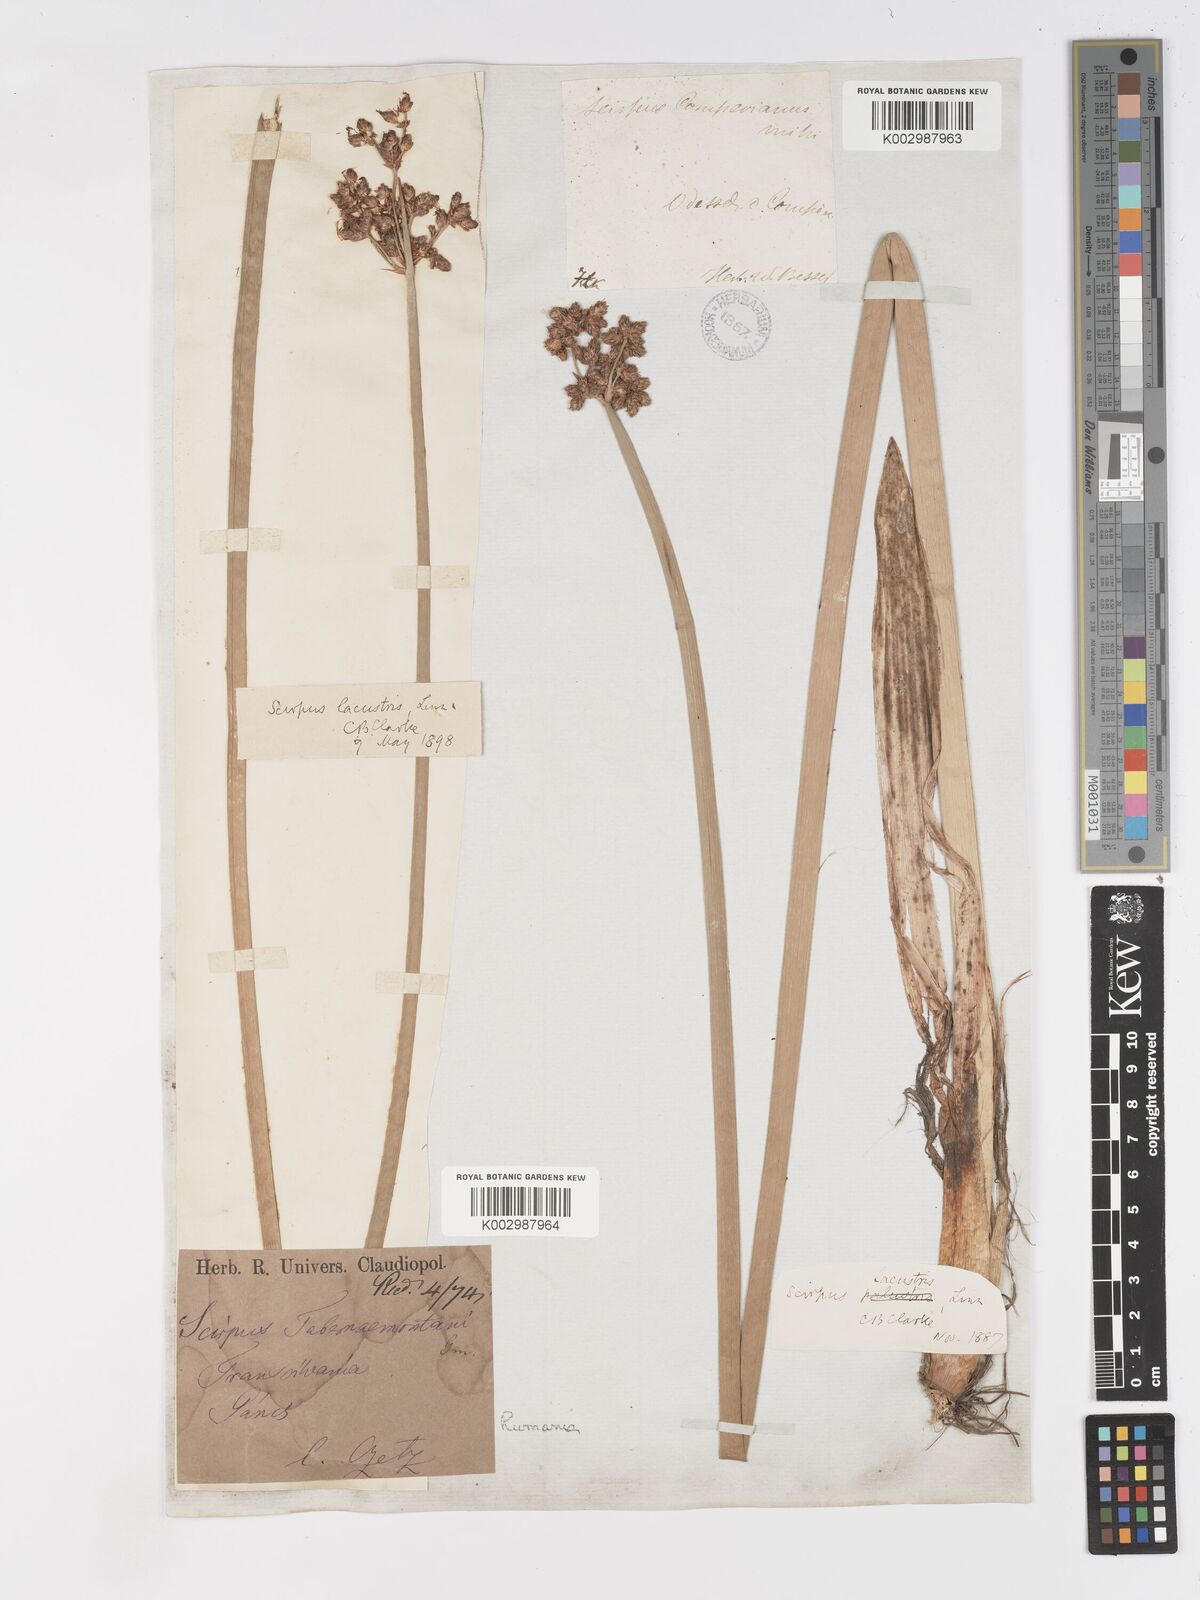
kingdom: Plantae
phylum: Tracheophyta
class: Liliopsida
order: Poales
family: Cyperaceae
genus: Schoenoplectus
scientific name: Schoenoplectus tabernaemontani
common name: Grey club-rush
